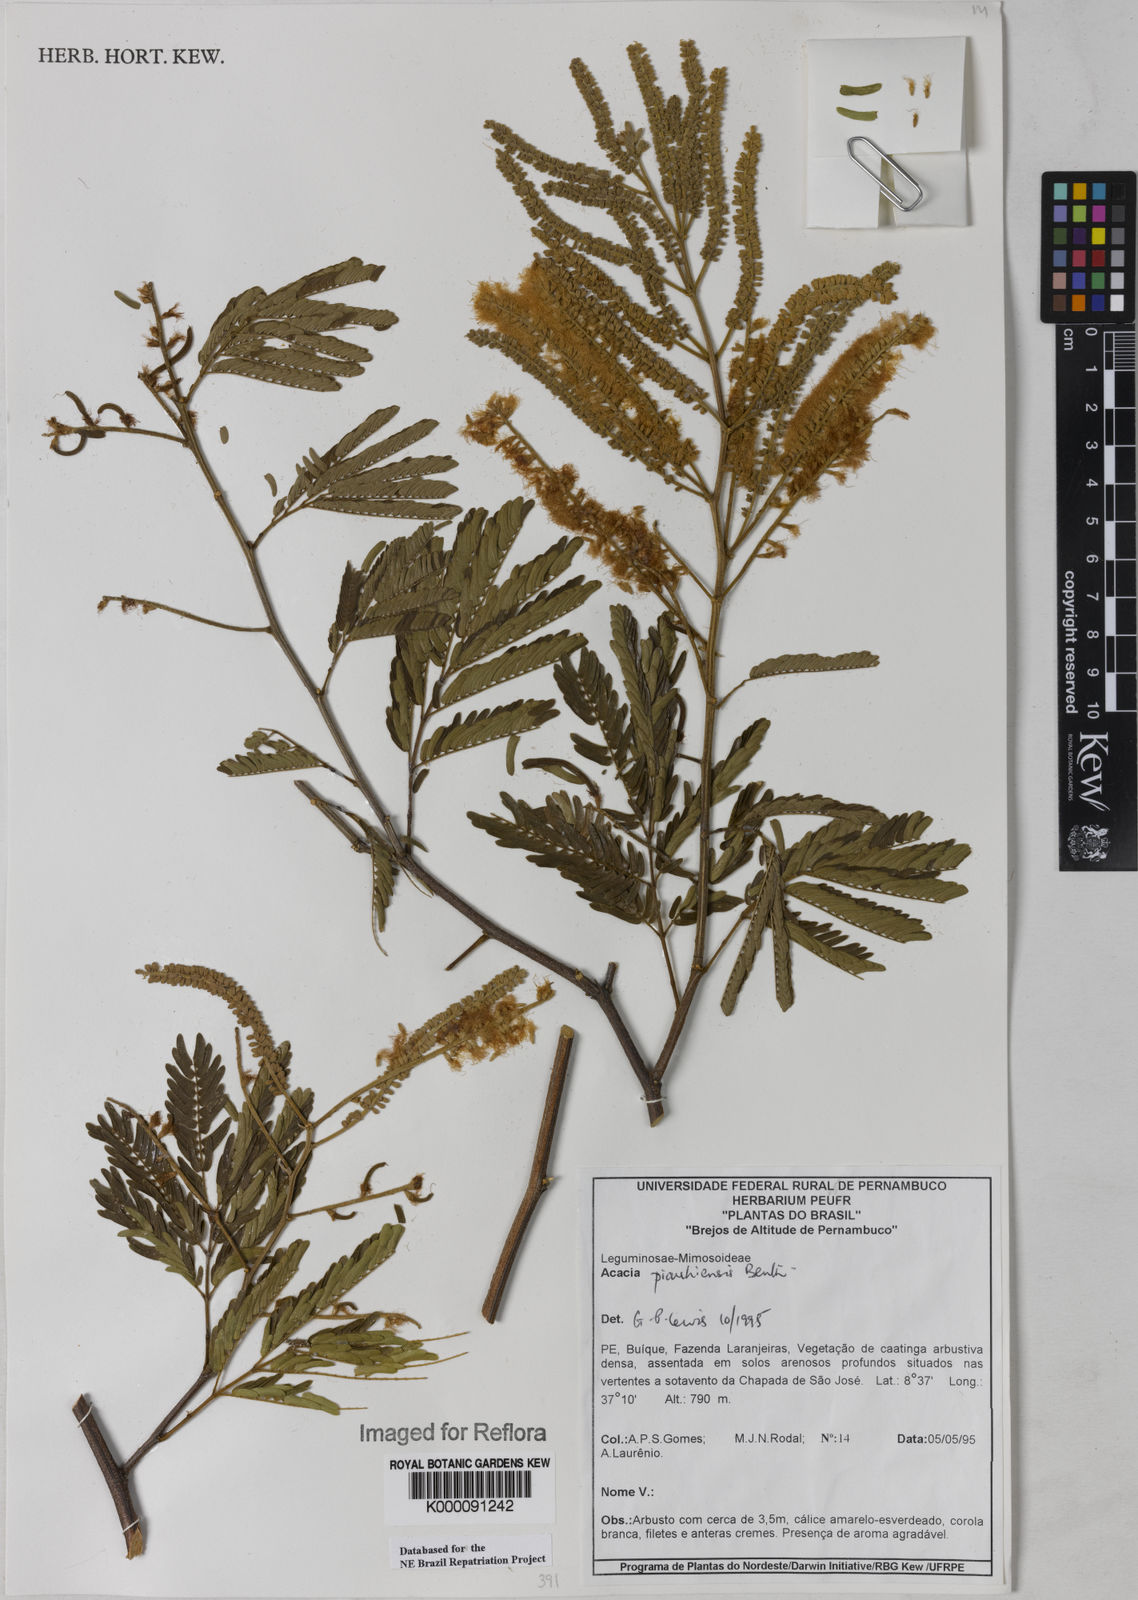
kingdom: Plantae
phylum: Tracheophyta
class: Magnoliopsida
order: Fabales
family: Fabaceae
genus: Senegalia
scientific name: Senegalia piauhiensis
